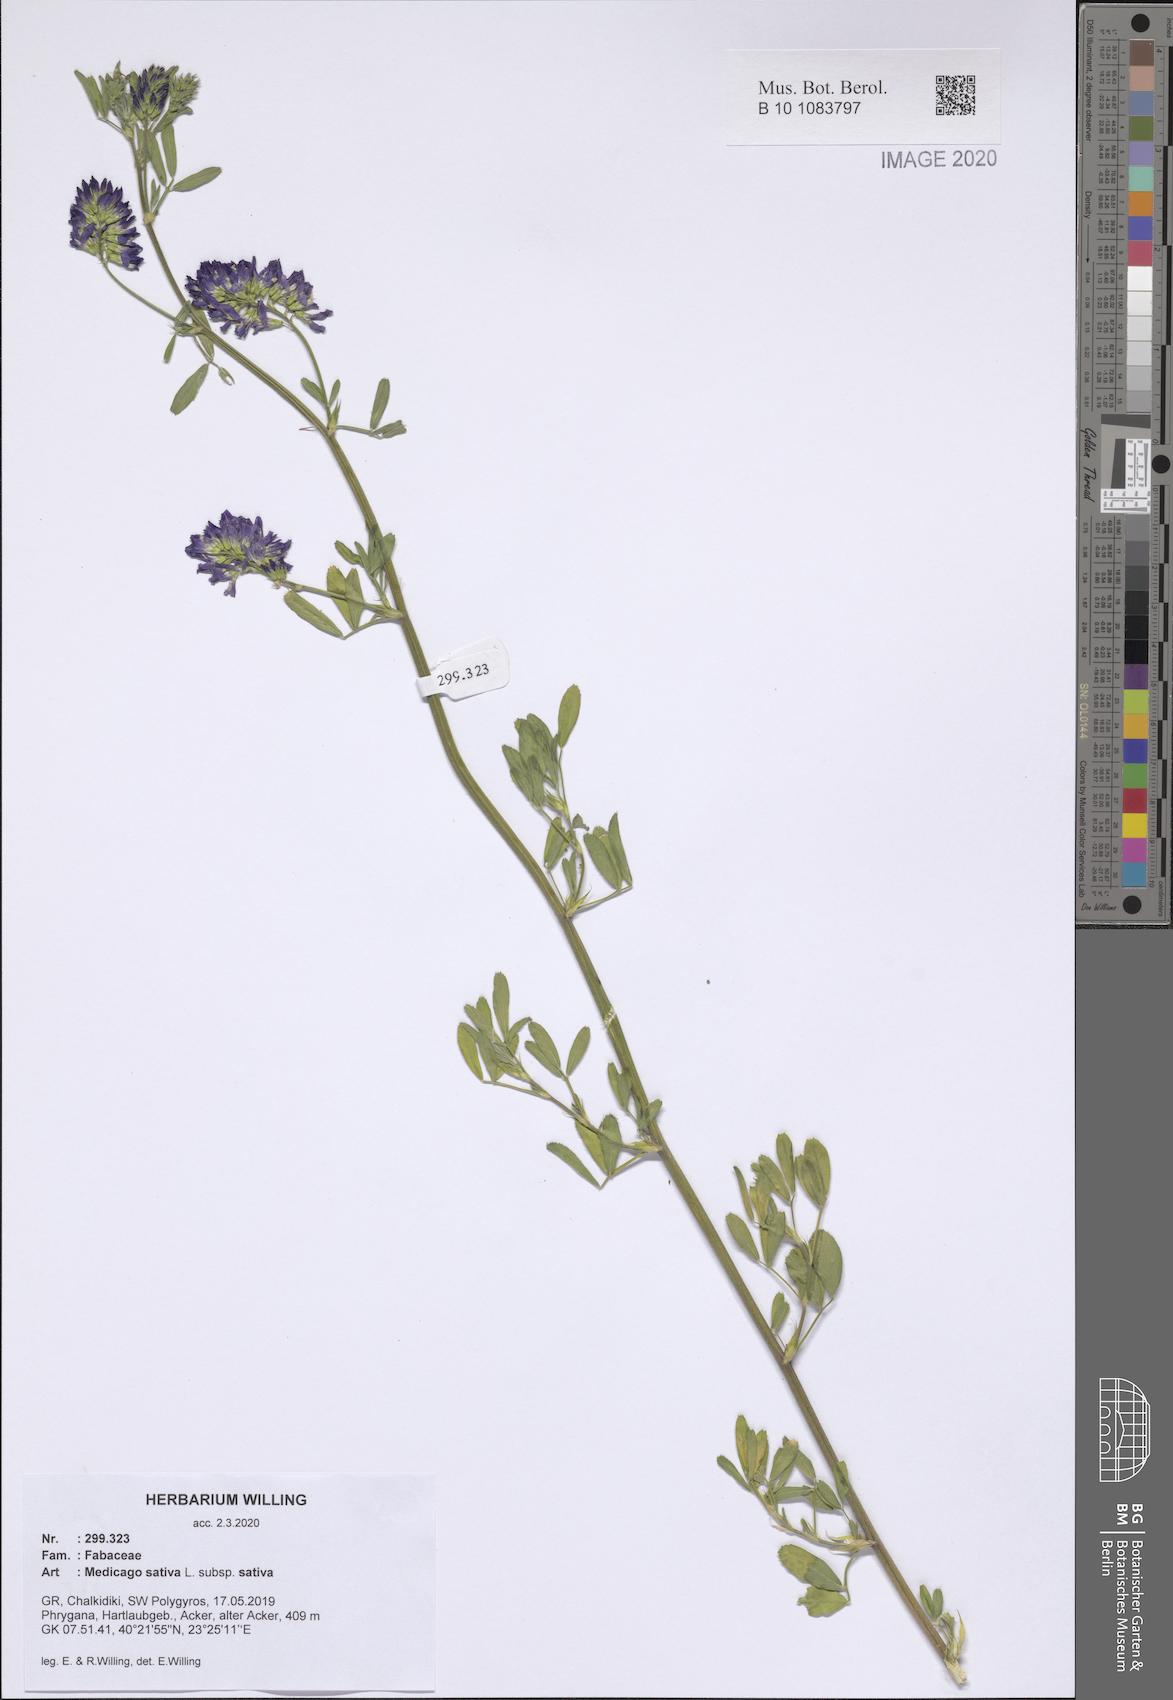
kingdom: Plantae
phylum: Tracheophyta
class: Magnoliopsida
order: Fabales
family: Fabaceae
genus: Medicago
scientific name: Medicago sativa
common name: Alfalfa
